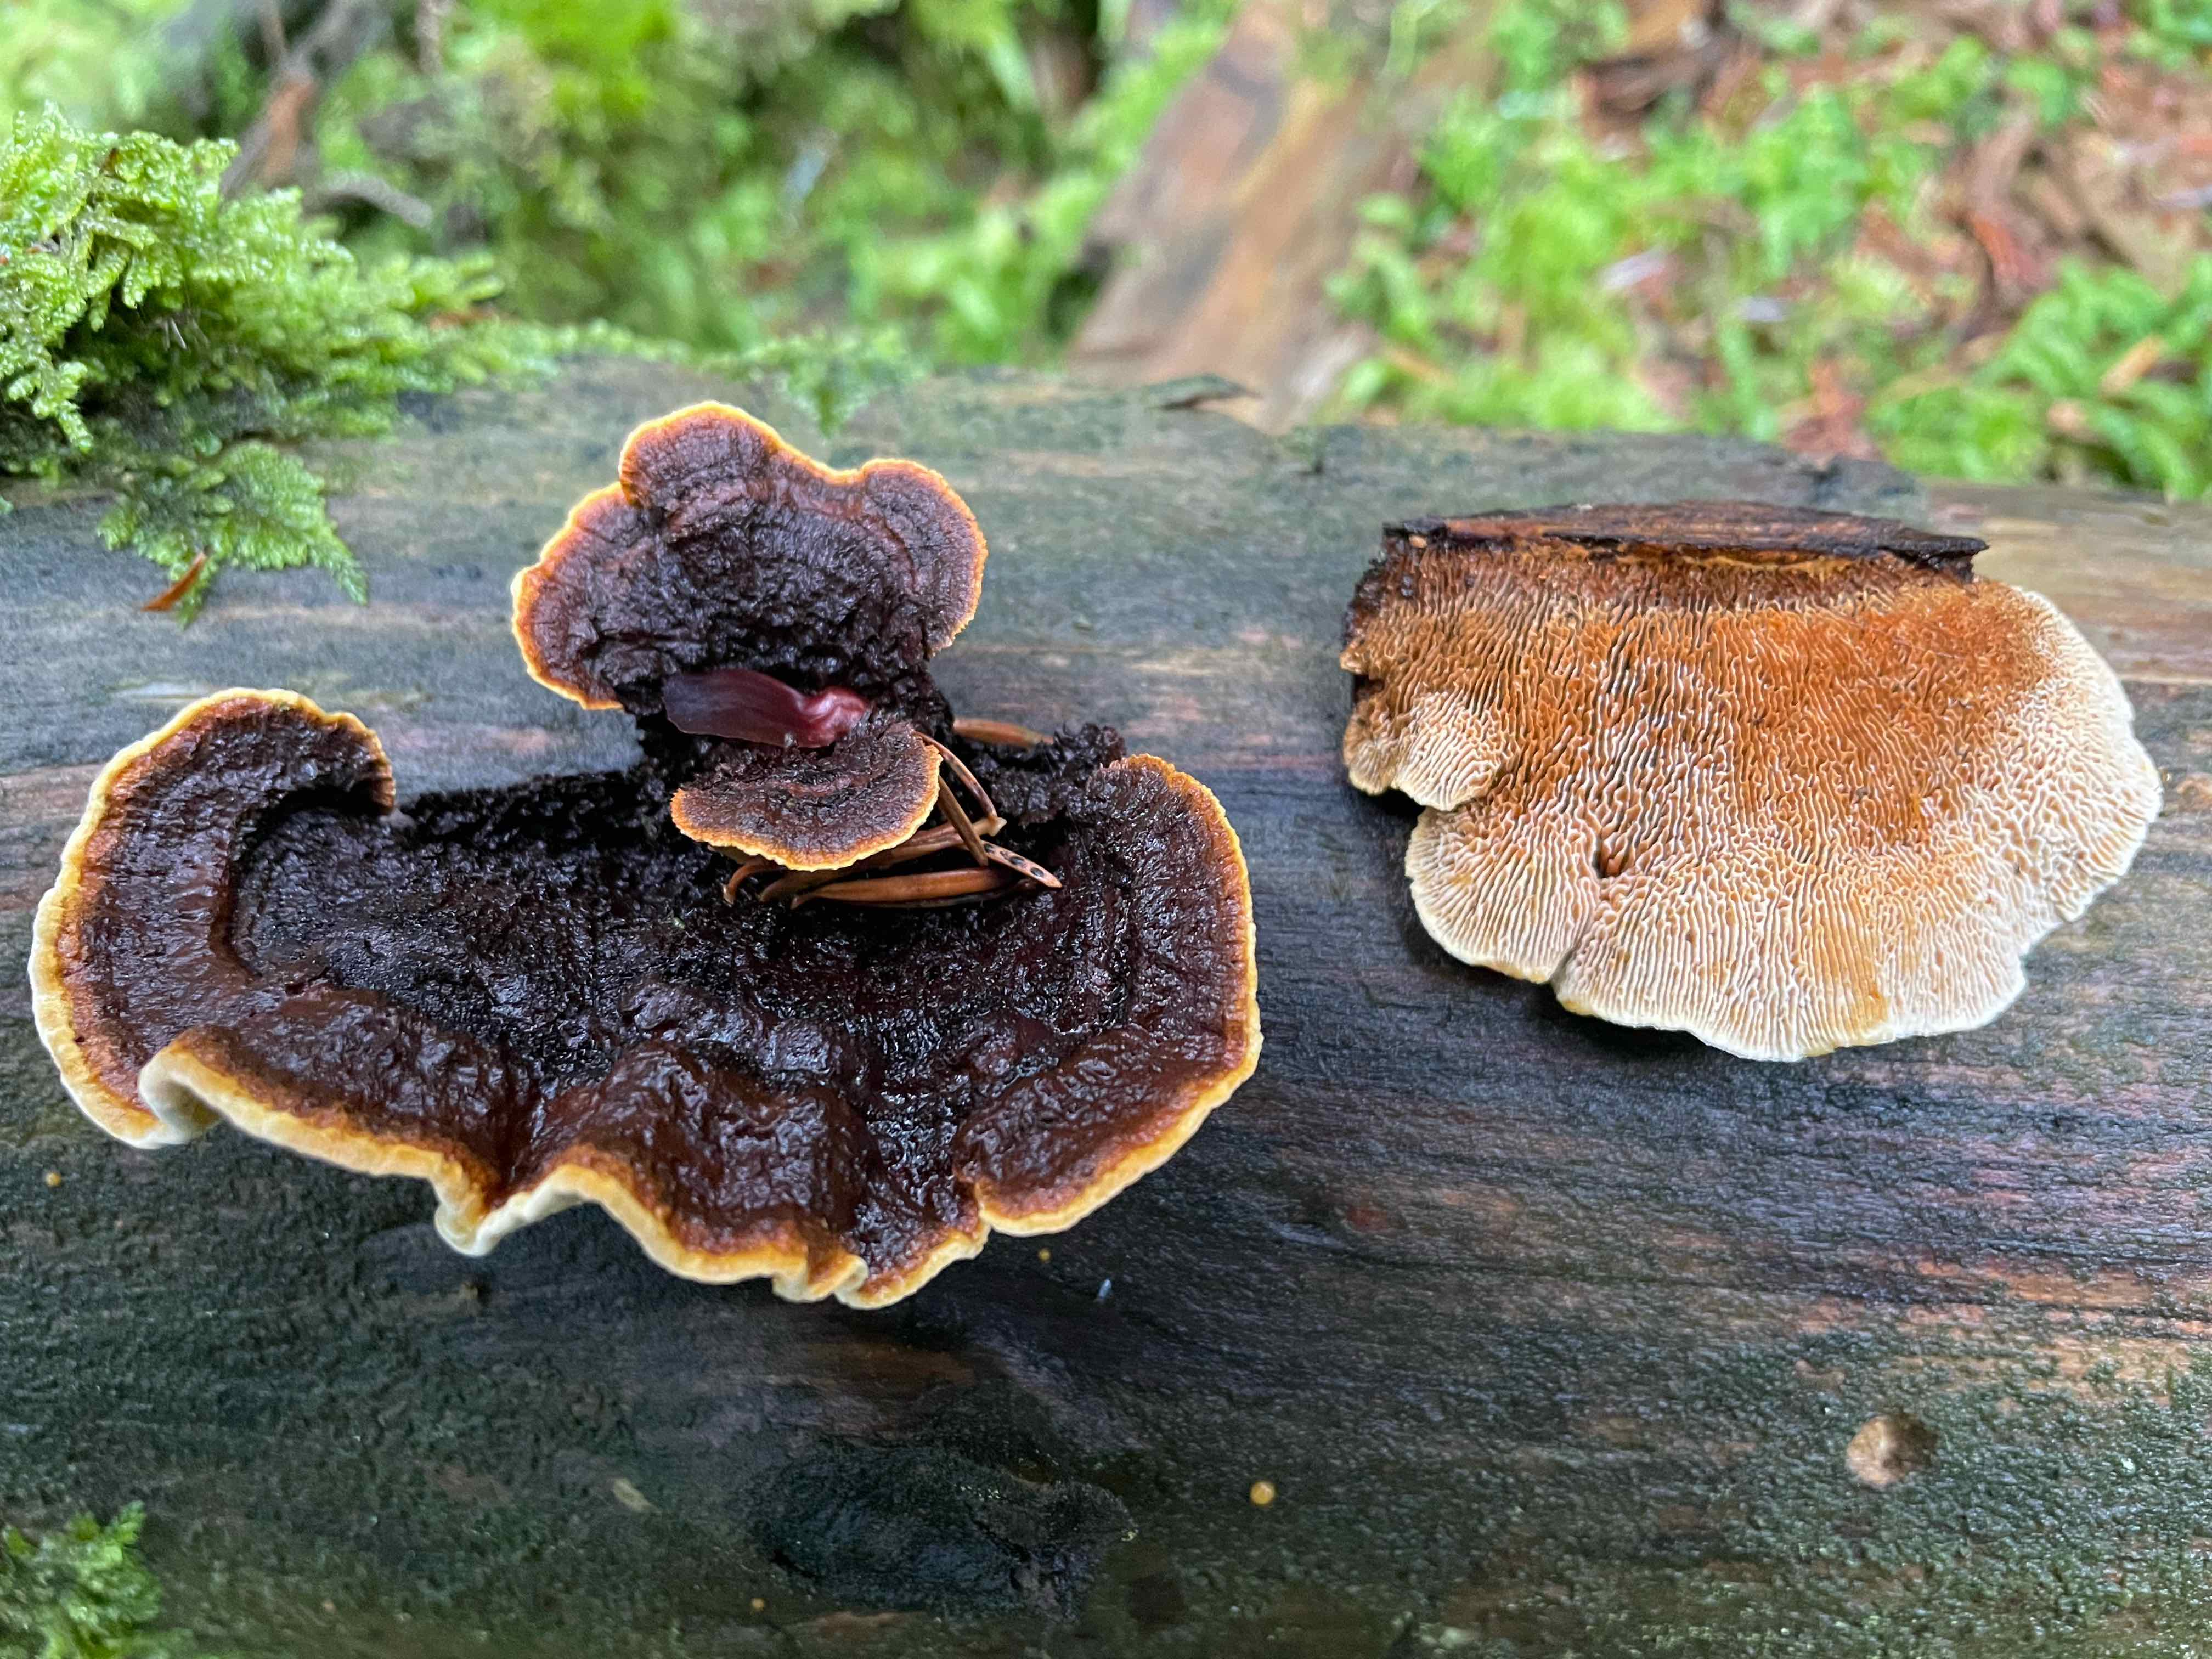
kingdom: Fungi
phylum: Basidiomycota
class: Agaricomycetes
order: Gloeophyllales
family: Gloeophyllaceae
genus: Gloeophyllum
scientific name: Gloeophyllum sepiarium
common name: fyrre-korkhat
